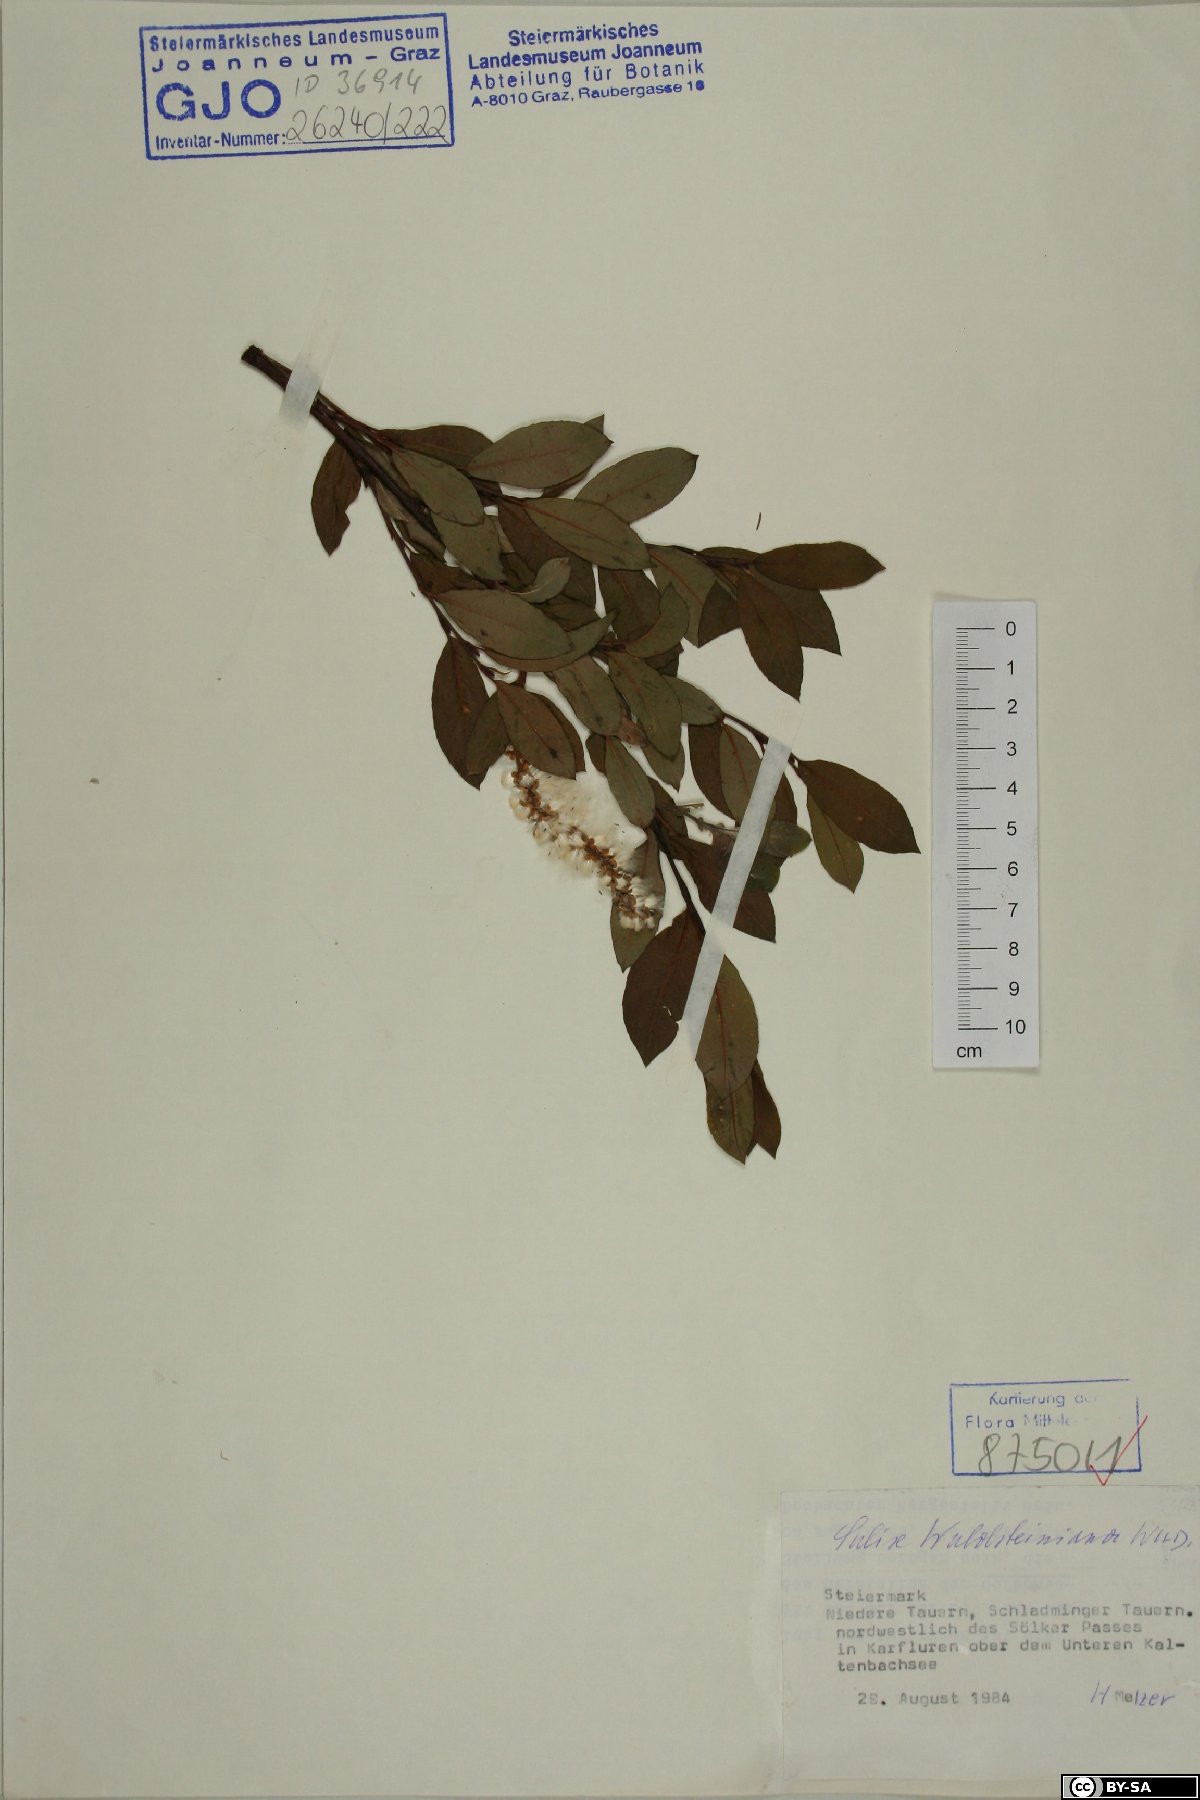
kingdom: Plantae
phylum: Tracheophyta
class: Magnoliopsida
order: Malpighiales
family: Salicaceae
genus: Salix
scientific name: Salix waldsteiniana
